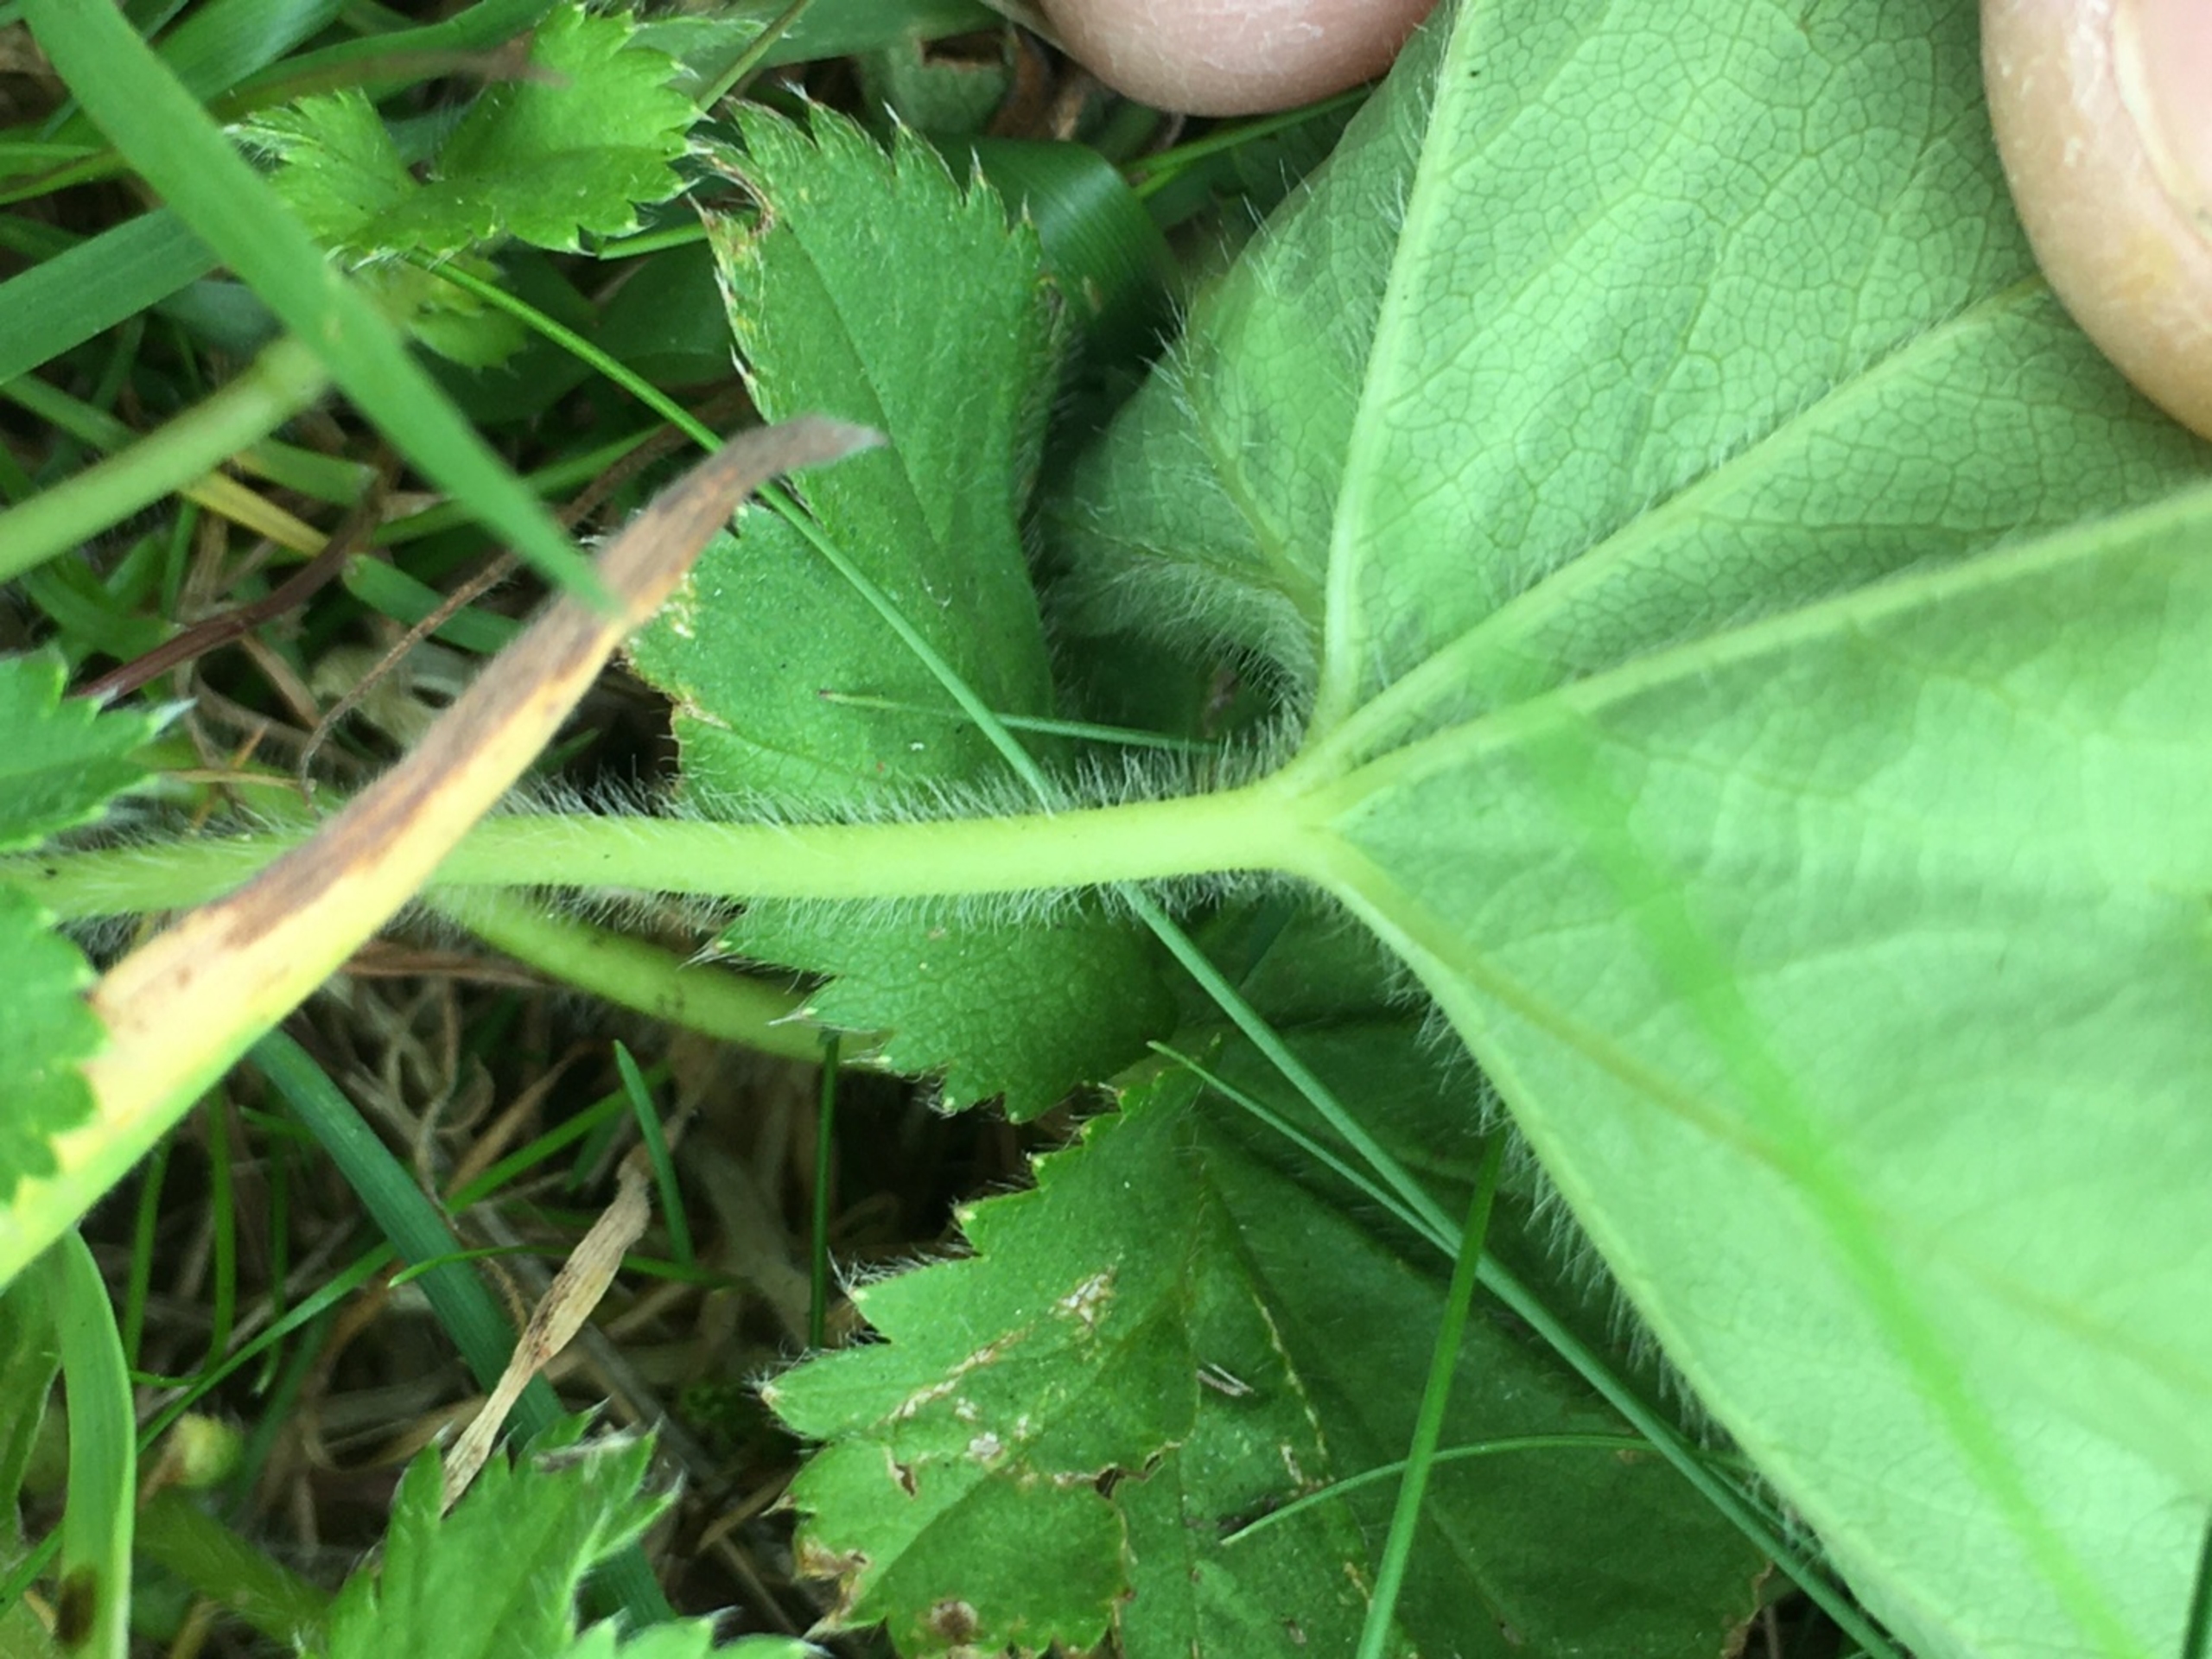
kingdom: Plantae
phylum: Tracheophyta
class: Magnoliopsida
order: Rosales
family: Rosaceae
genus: Alchemilla
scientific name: Alchemilla propinqua
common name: Hjulbladet løvefod
